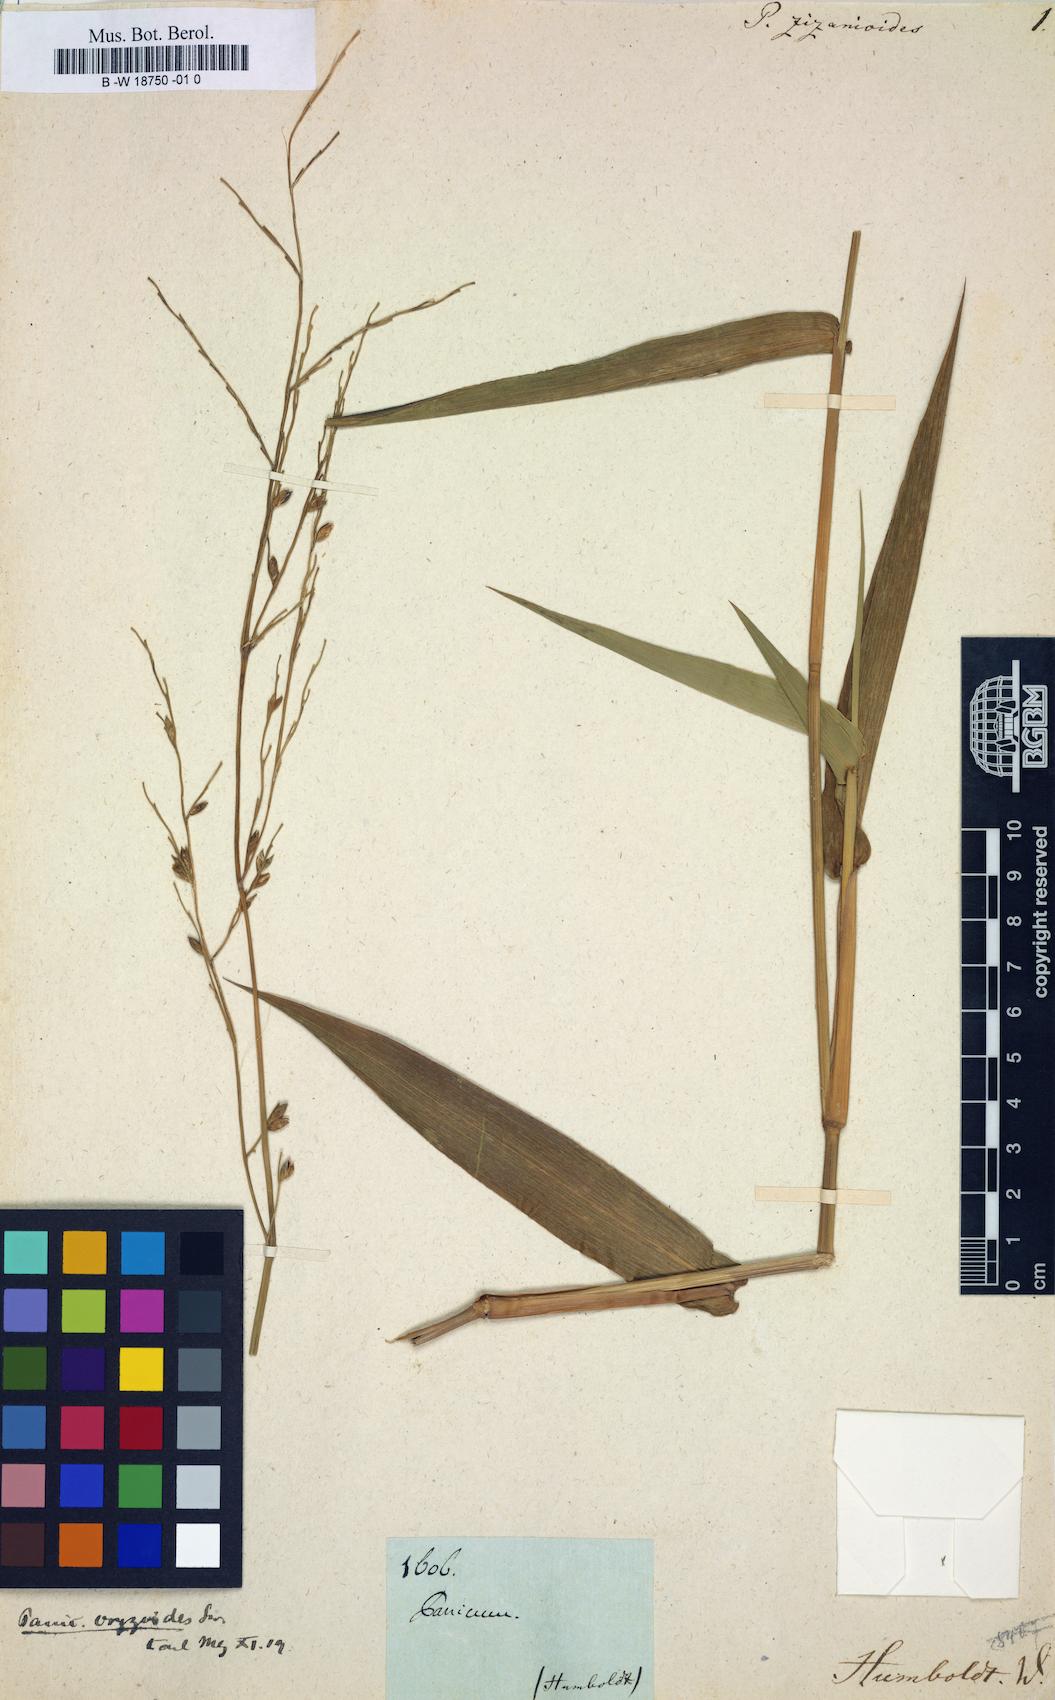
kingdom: Plantae
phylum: Tracheophyta
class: Liliopsida
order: Poales
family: Poaceae
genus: Acroceras
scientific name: Acroceras zizanioides
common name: Oat grass
